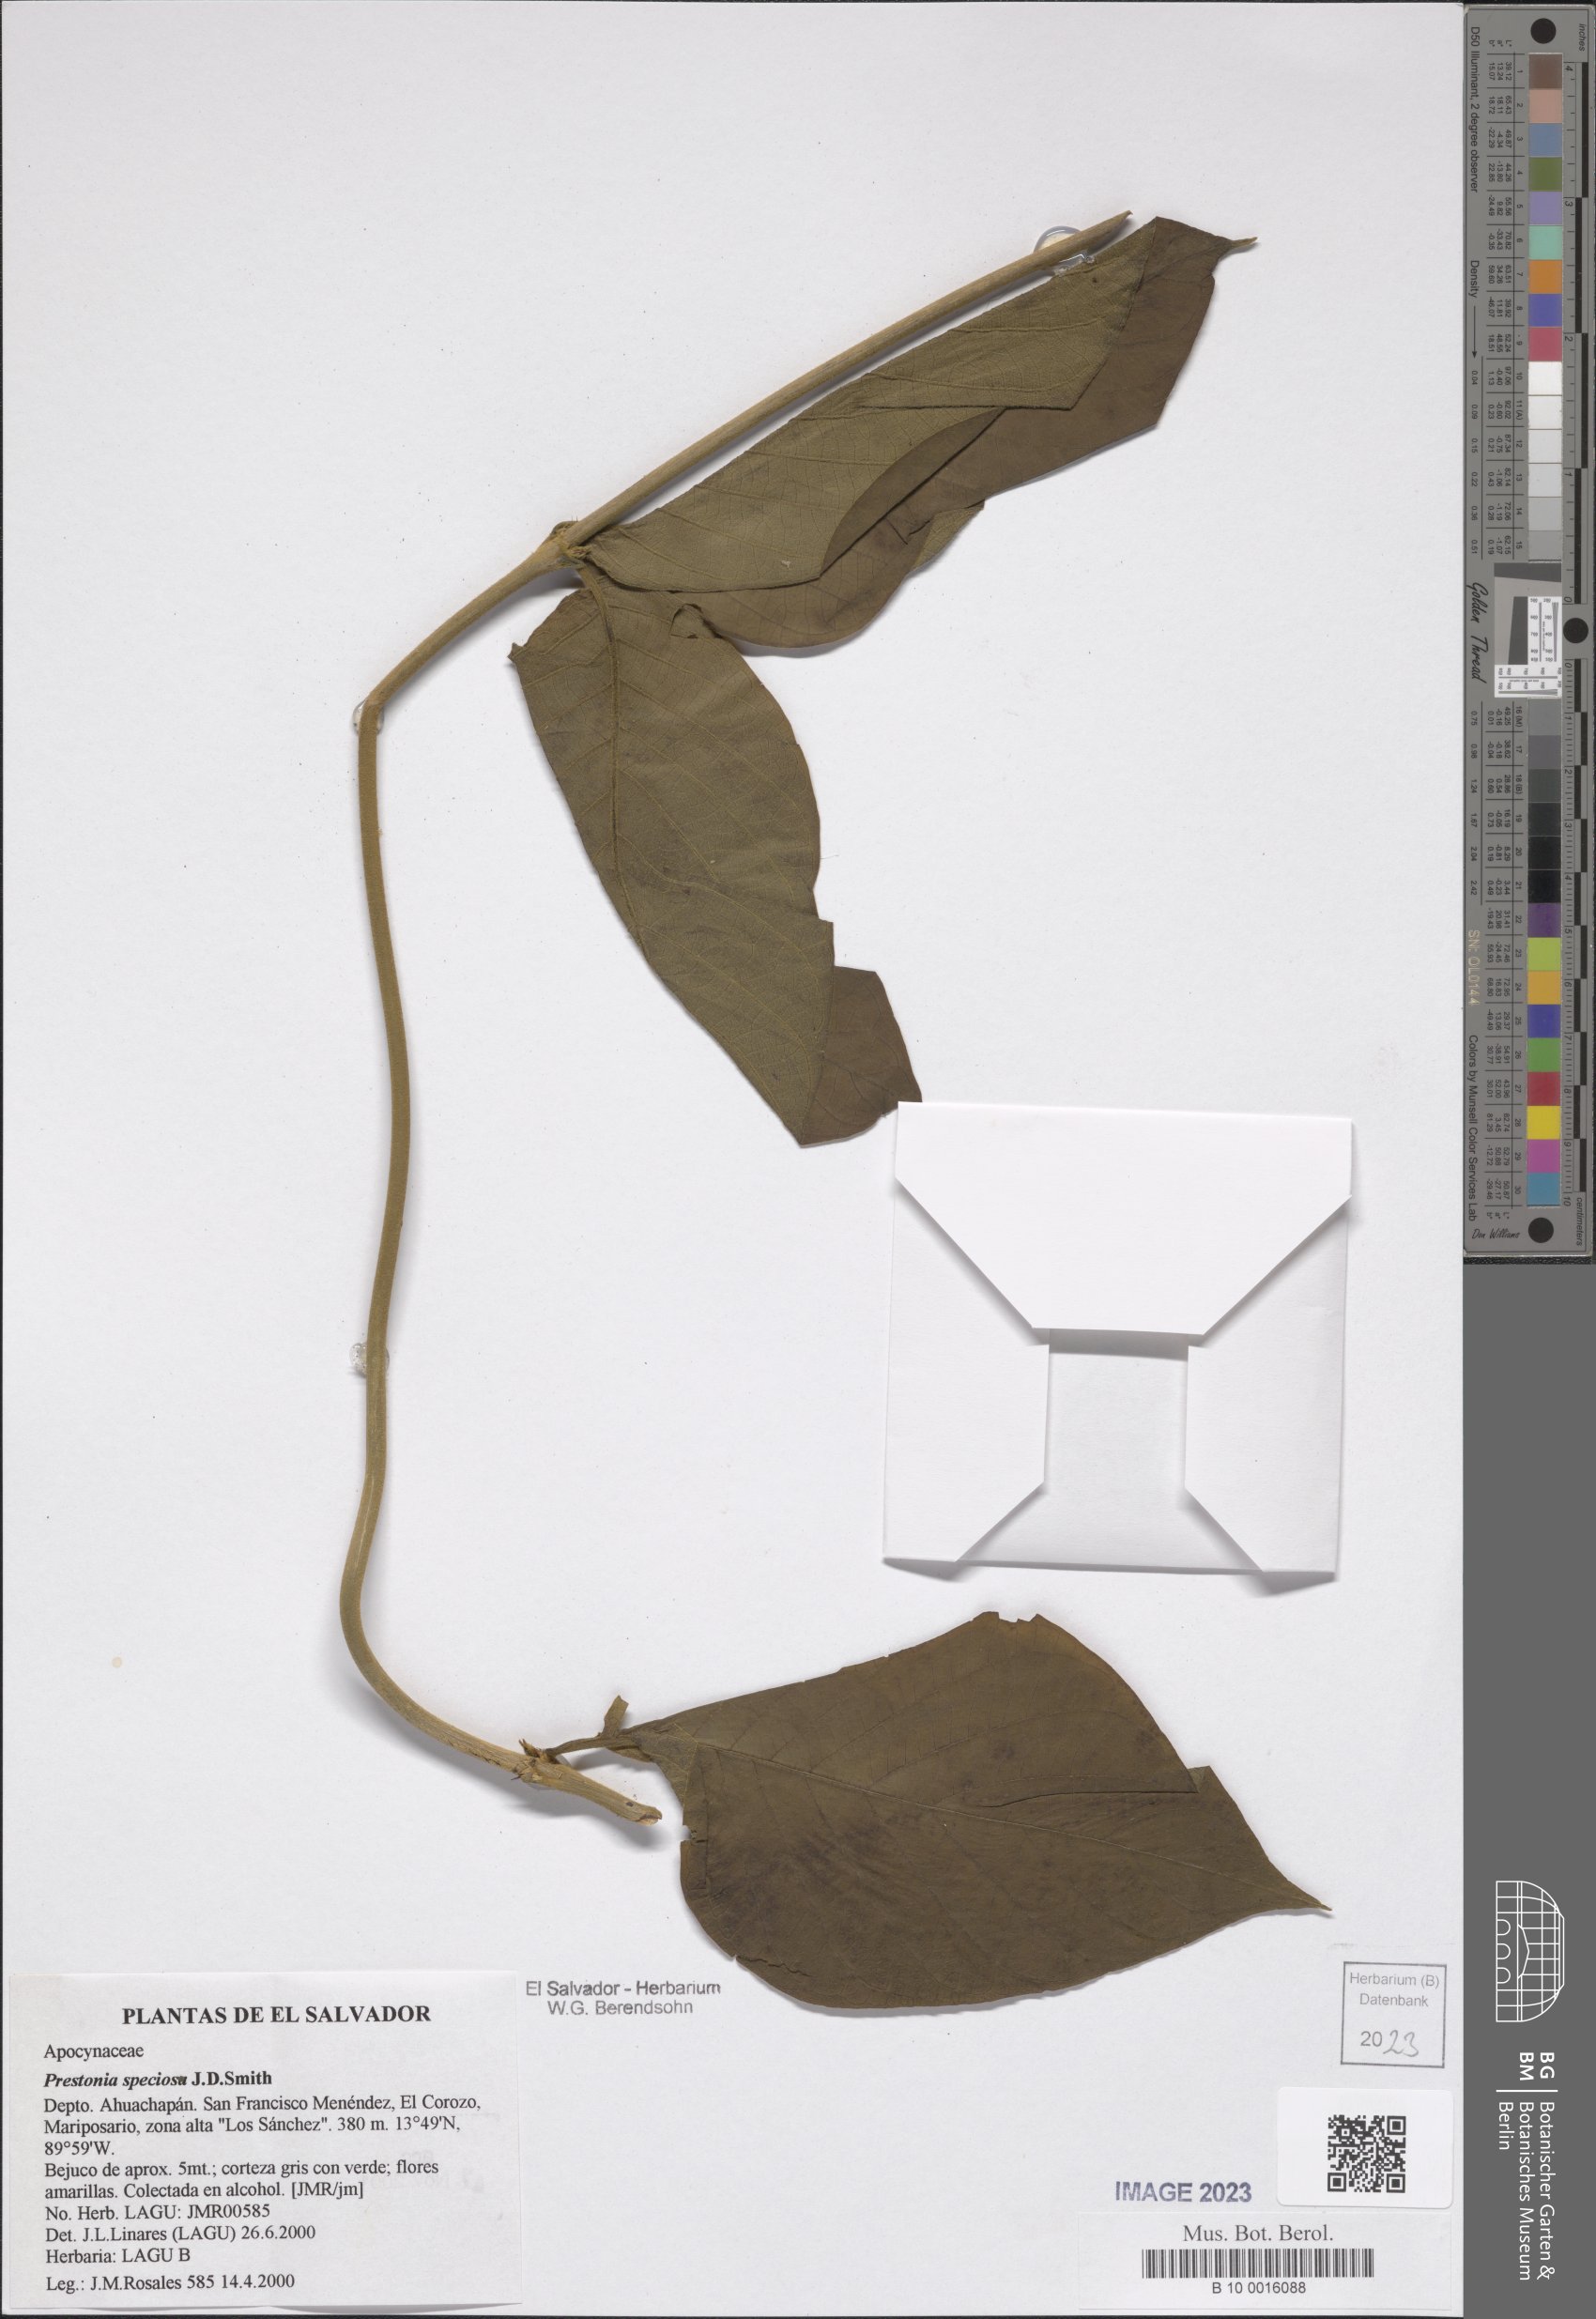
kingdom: Plantae
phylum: Tracheophyta
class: Magnoliopsida
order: Gentianales
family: Apocynaceae
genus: Prestonia
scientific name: Prestonia speciosa
